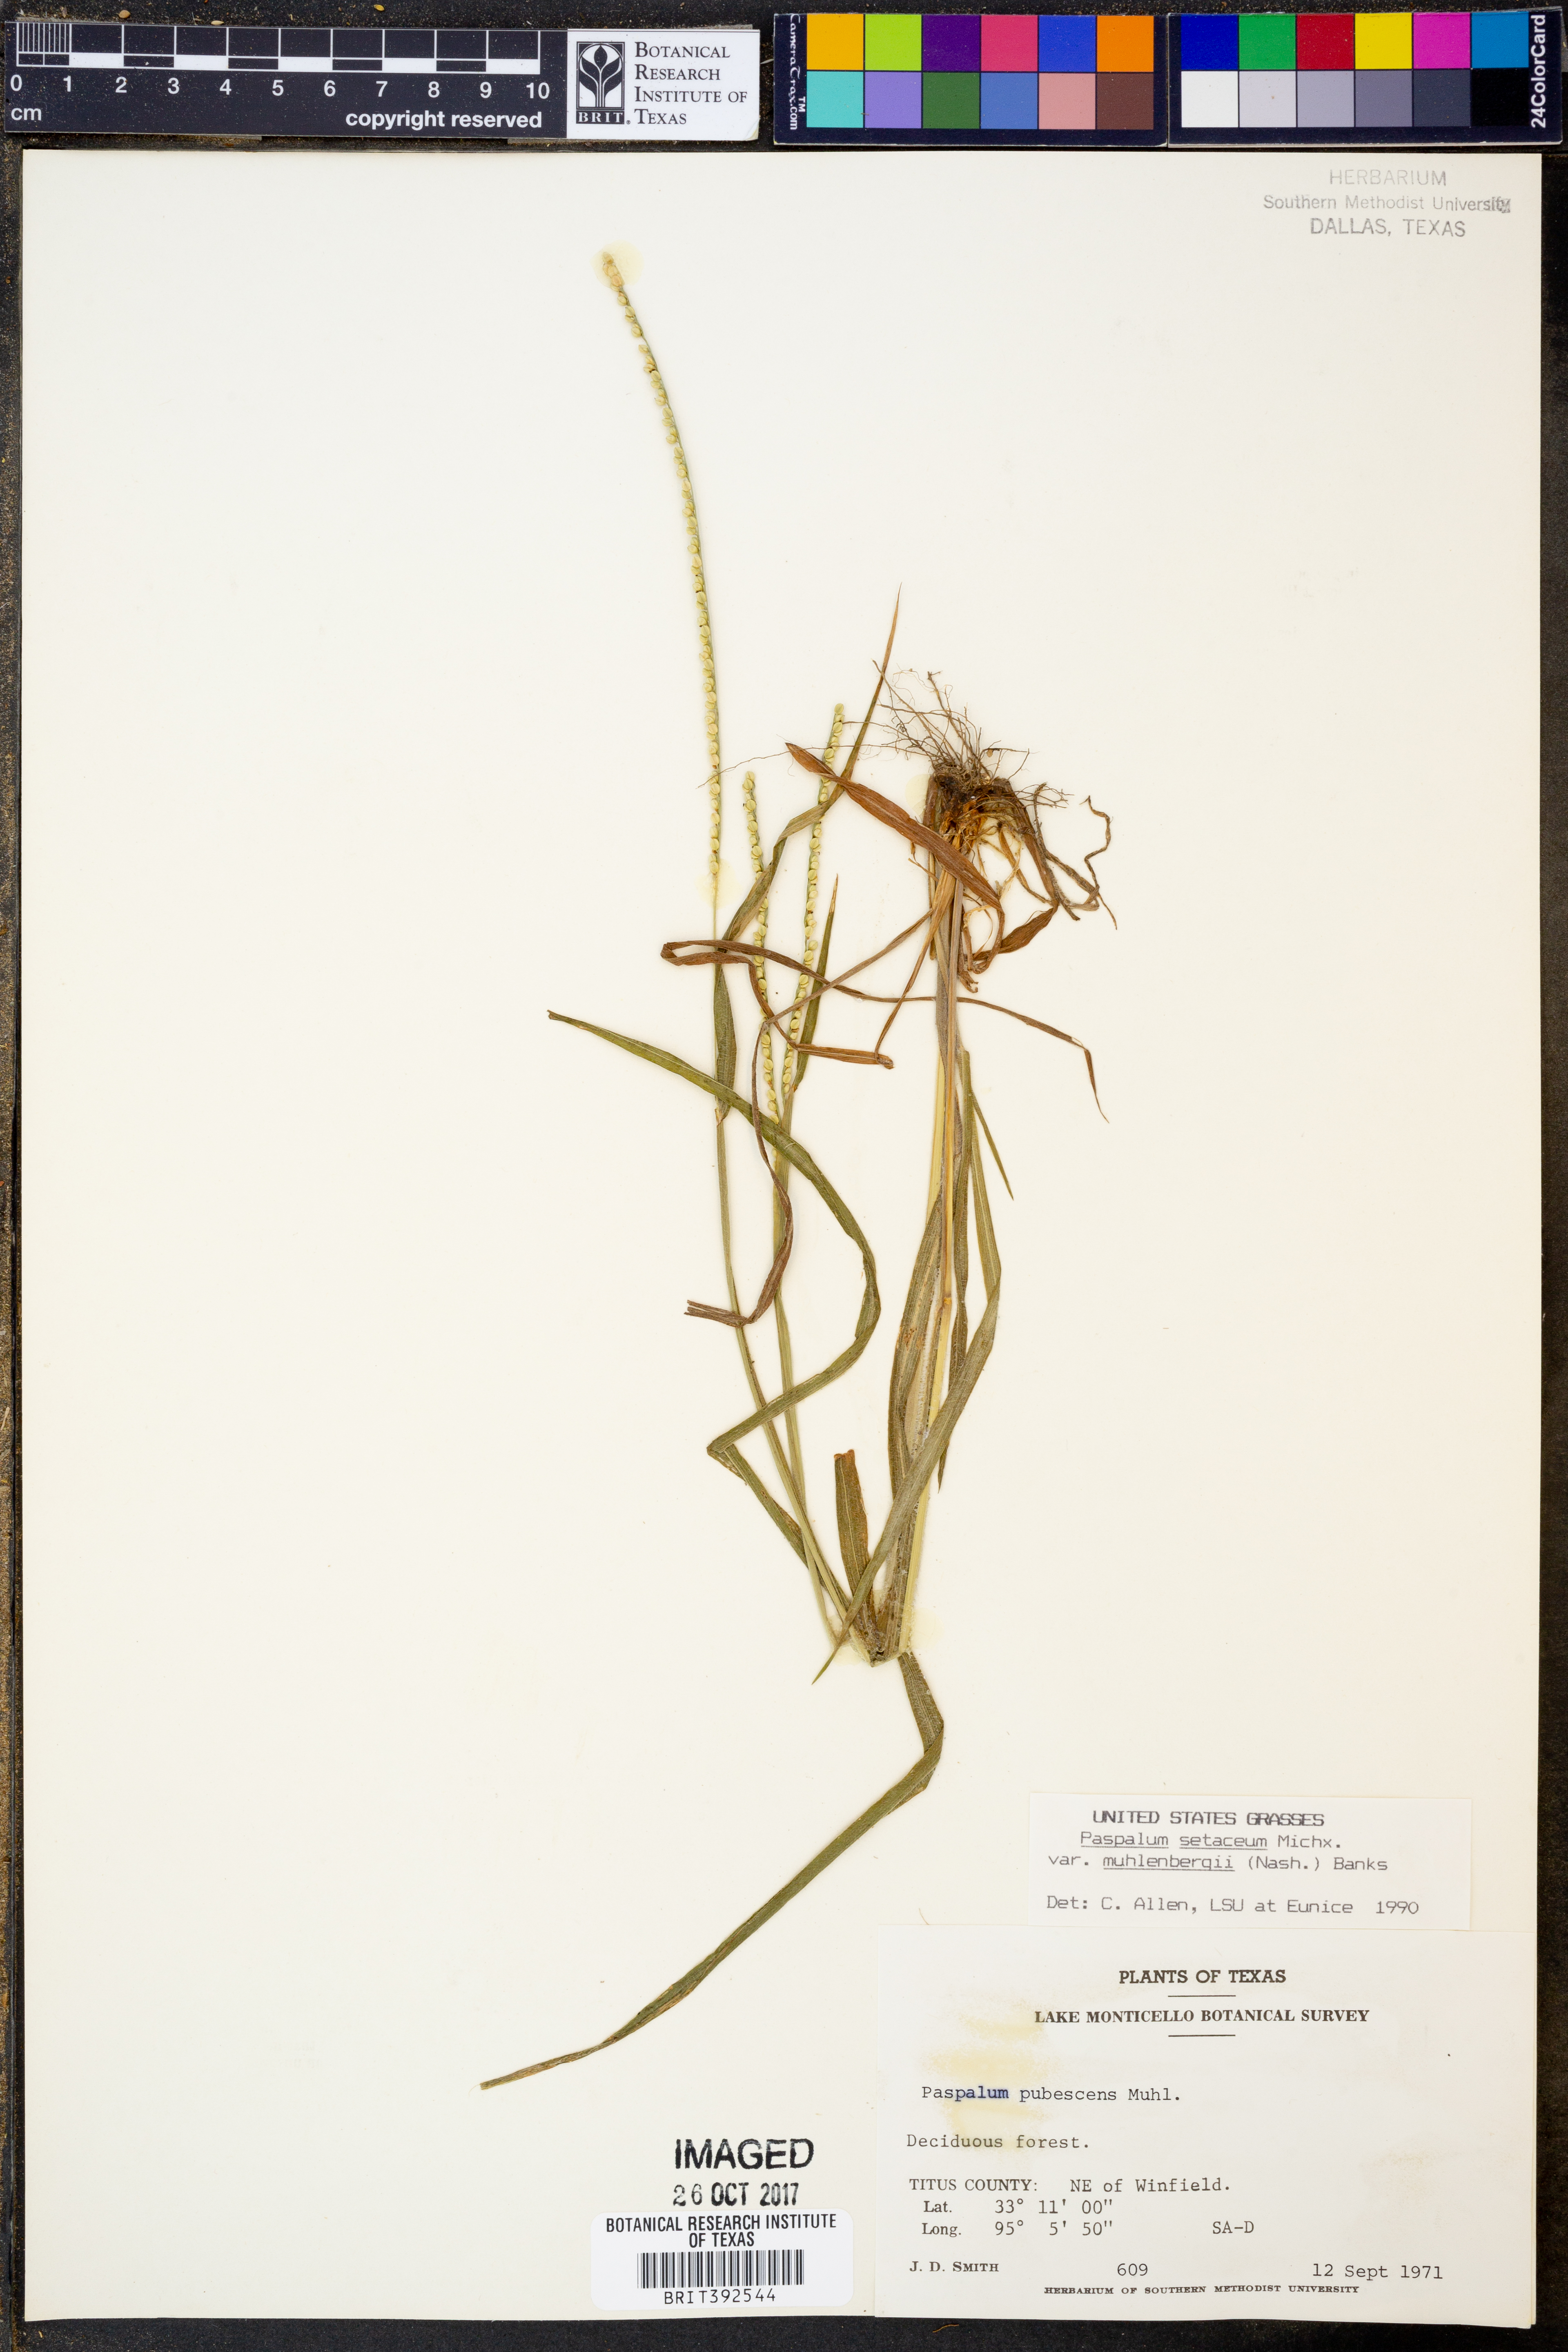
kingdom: Plantae
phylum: Tracheophyta
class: Liliopsida
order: Poales
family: Poaceae
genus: Paspalum
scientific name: Paspalum setaceum
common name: Slender paspalum
